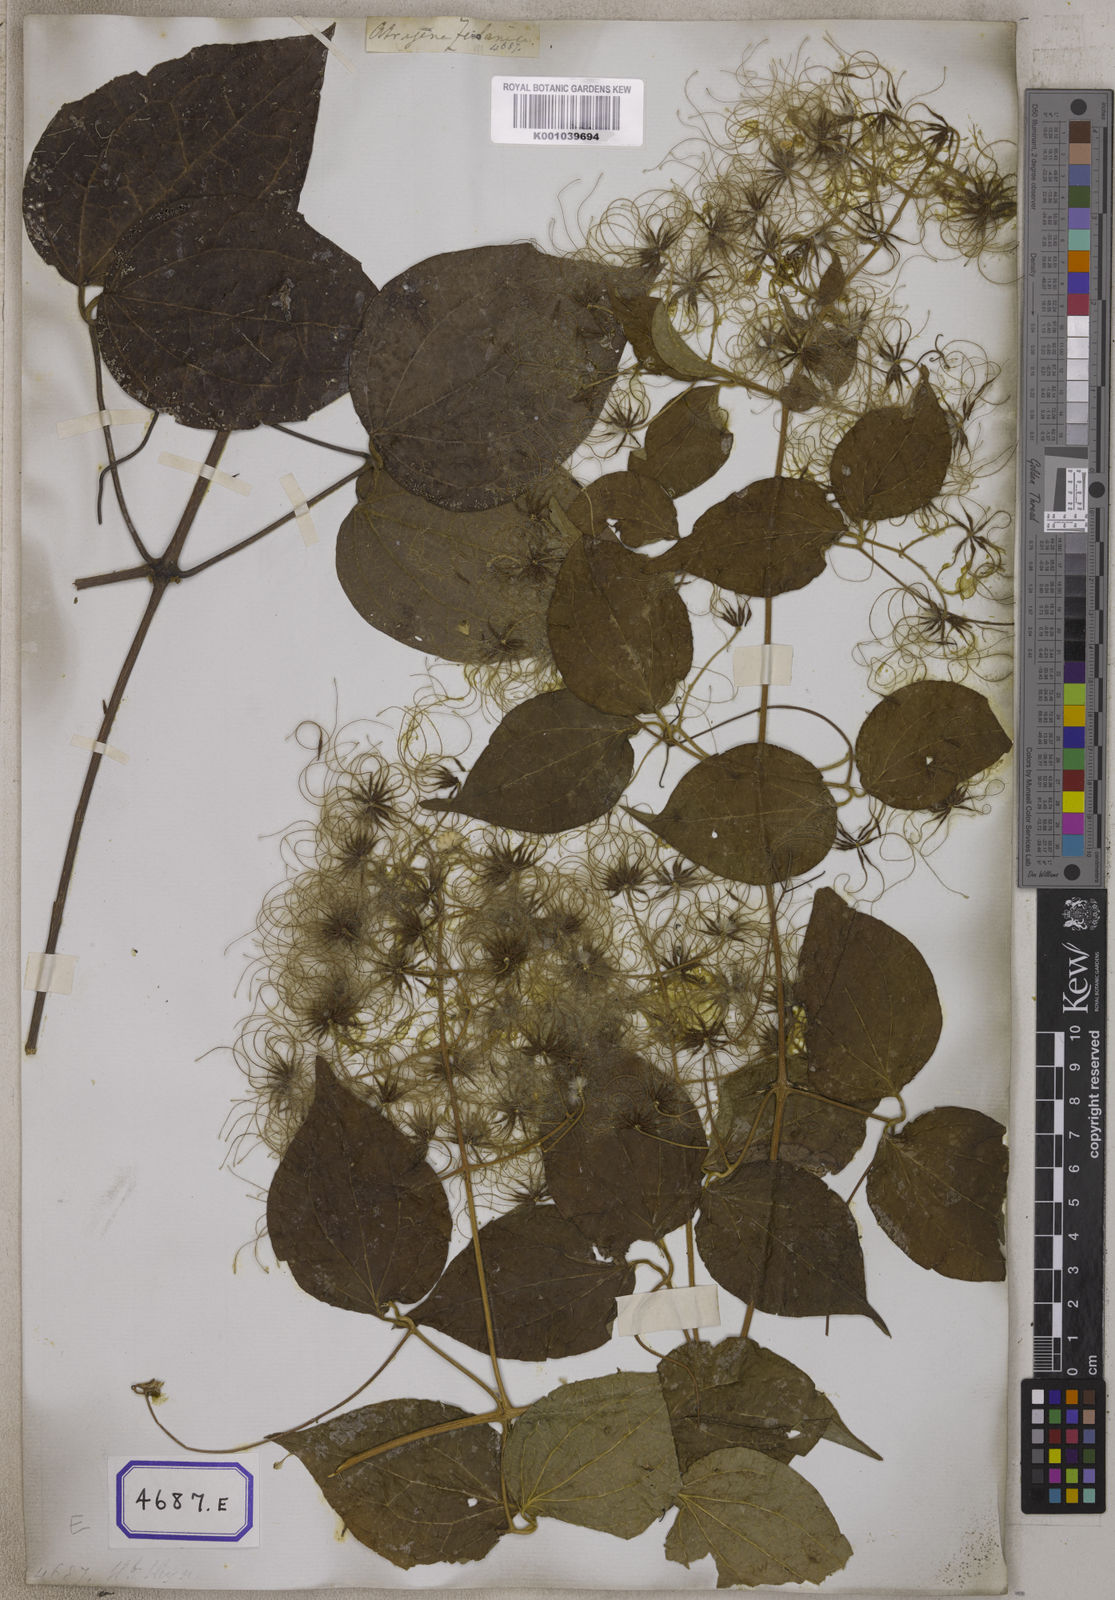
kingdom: Plantae
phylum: Tracheophyta
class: Magnoliopsida
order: Rosales
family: Moraceae
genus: Morus
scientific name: Morus alba
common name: White mulberry
